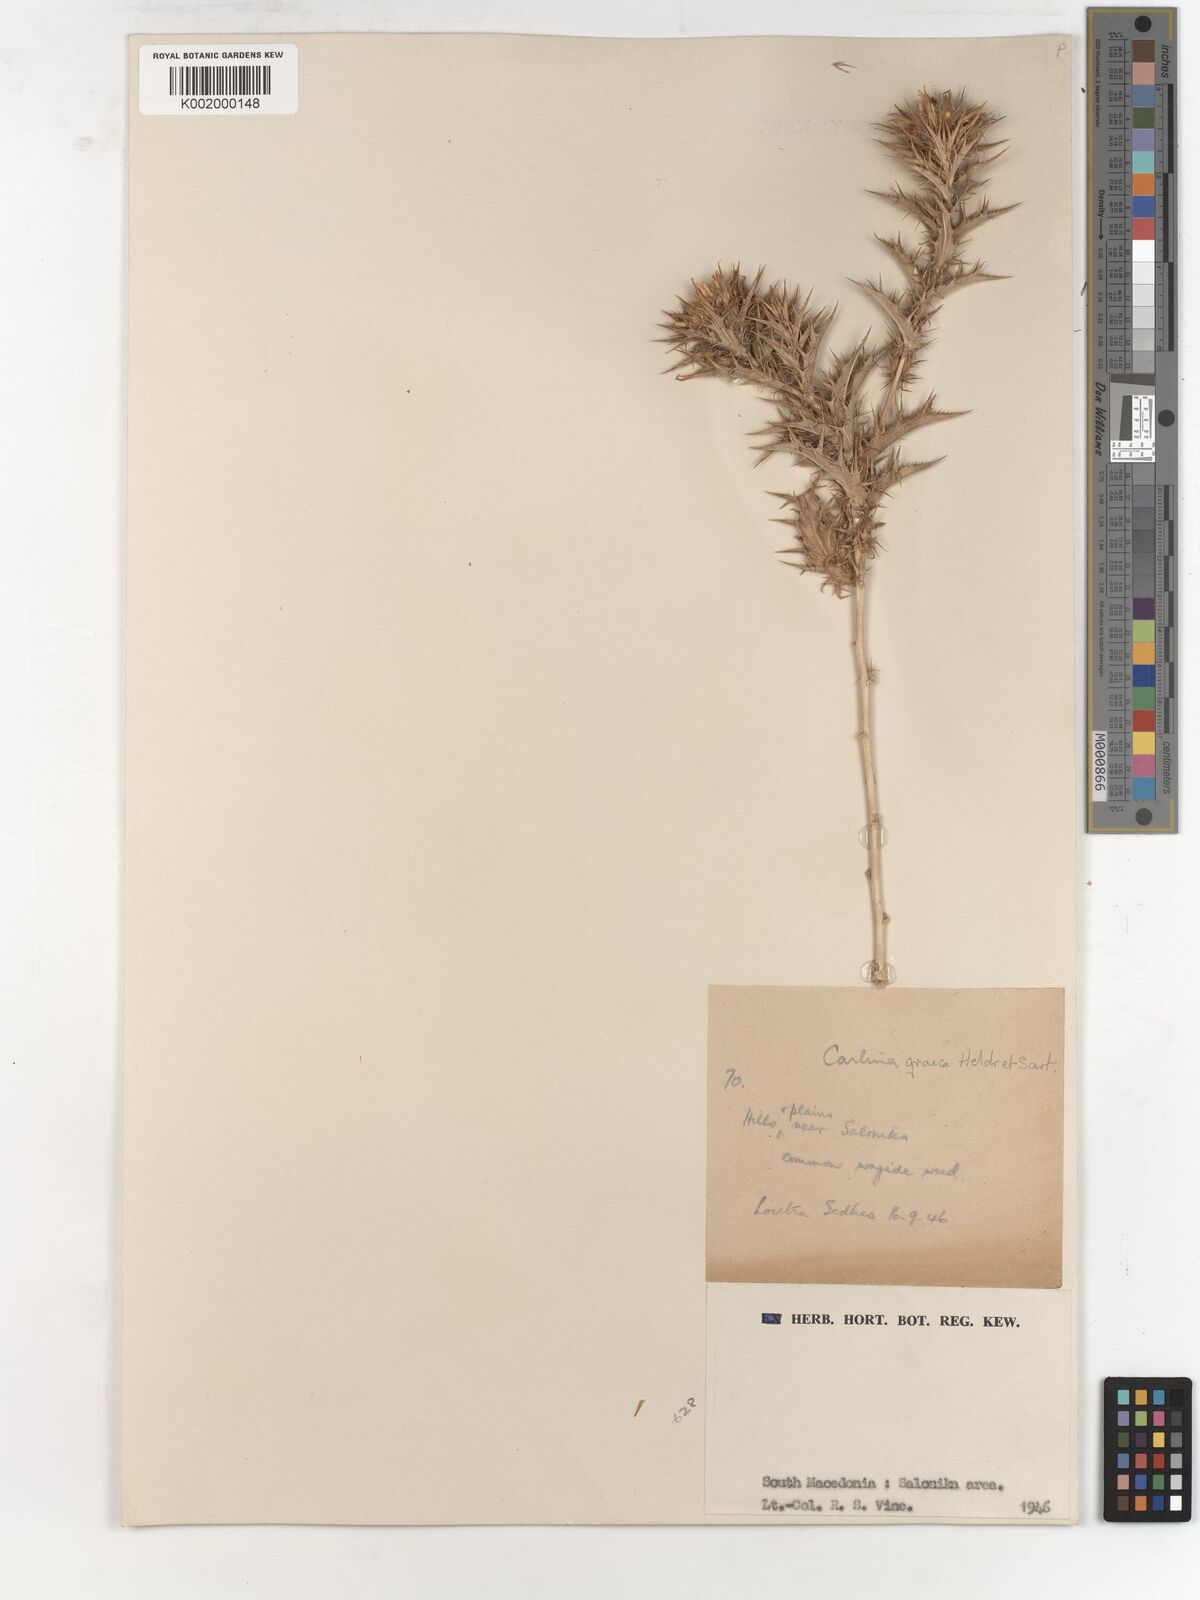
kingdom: Plantae
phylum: Tracheophyta
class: Magnoliopsida
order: Asterales
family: Asteraceae
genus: Carlina
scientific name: Carlina corymbosa
